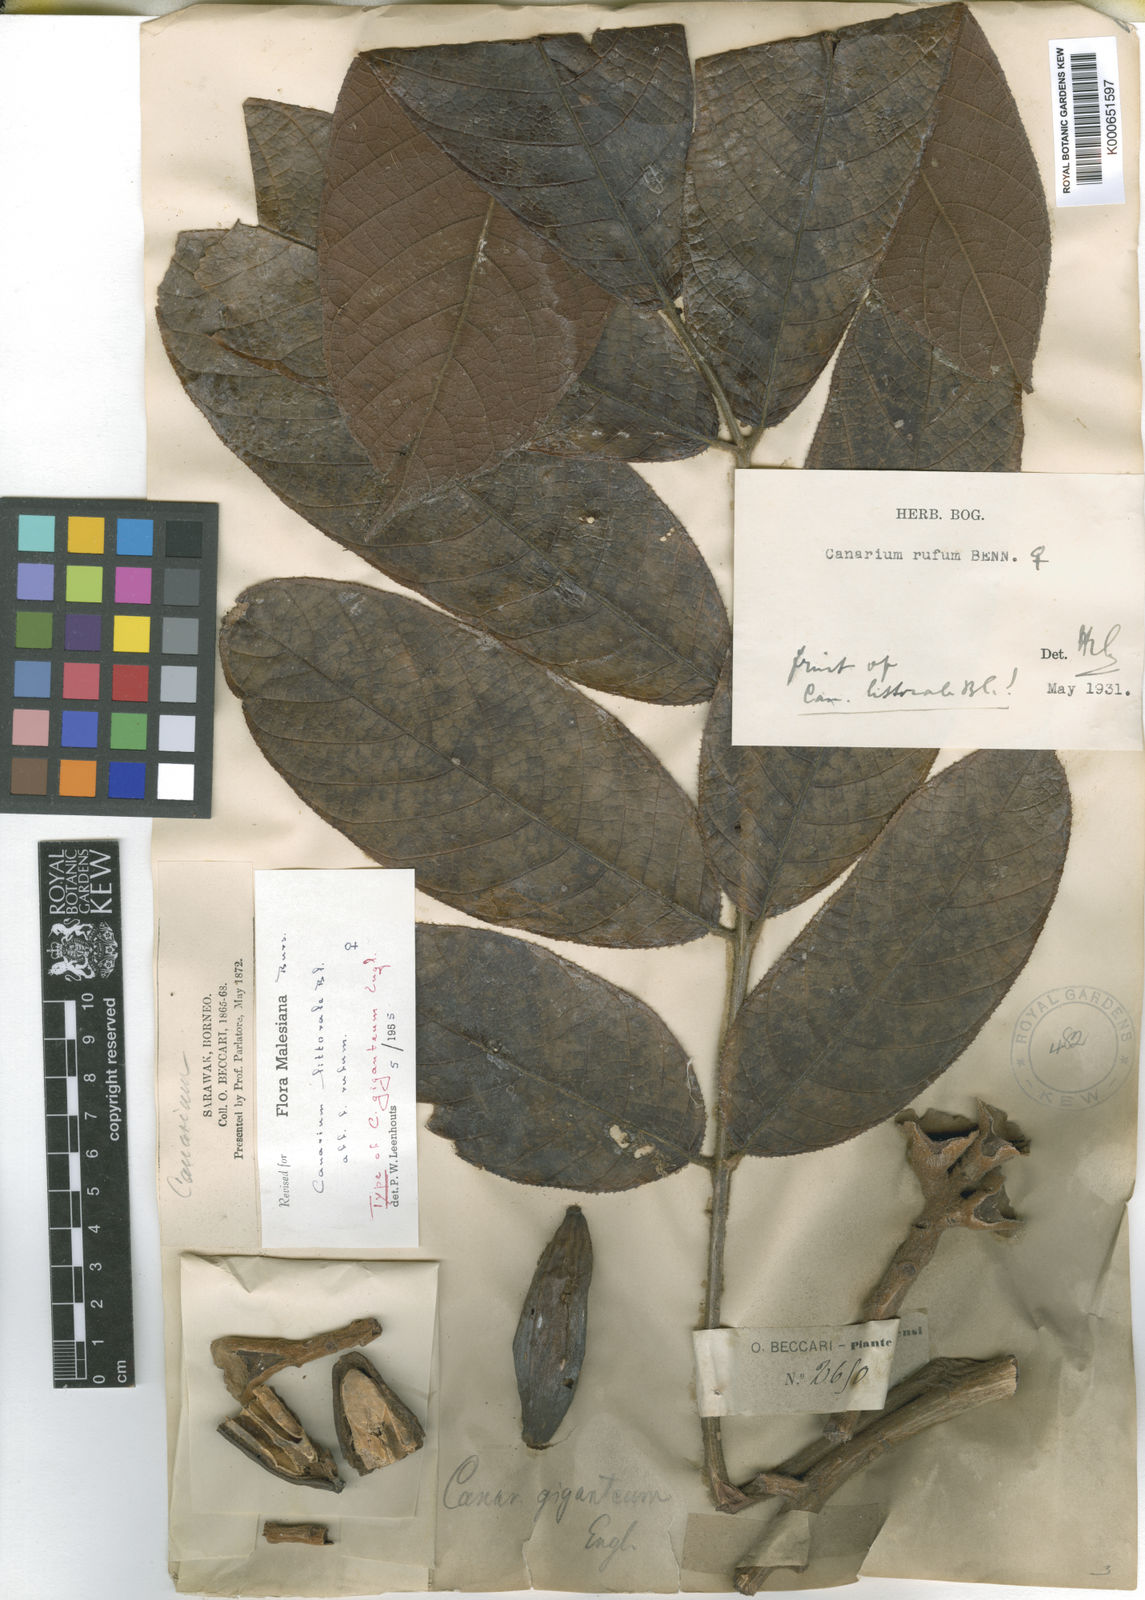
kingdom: Plantae
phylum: Tracheophyta
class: Magnoliopsida
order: Sapindales
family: Burseraceae
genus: Canarium
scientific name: Canarium littorale
